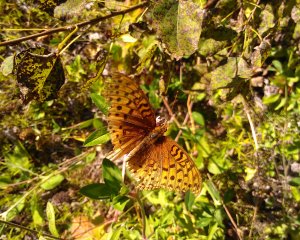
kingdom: Animalia
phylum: Arthropoda
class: Insecta
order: Lepidoptera
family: Nymphalidae
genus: Speyeria
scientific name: Speyeria cybele
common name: Great Spangled Fritillary
